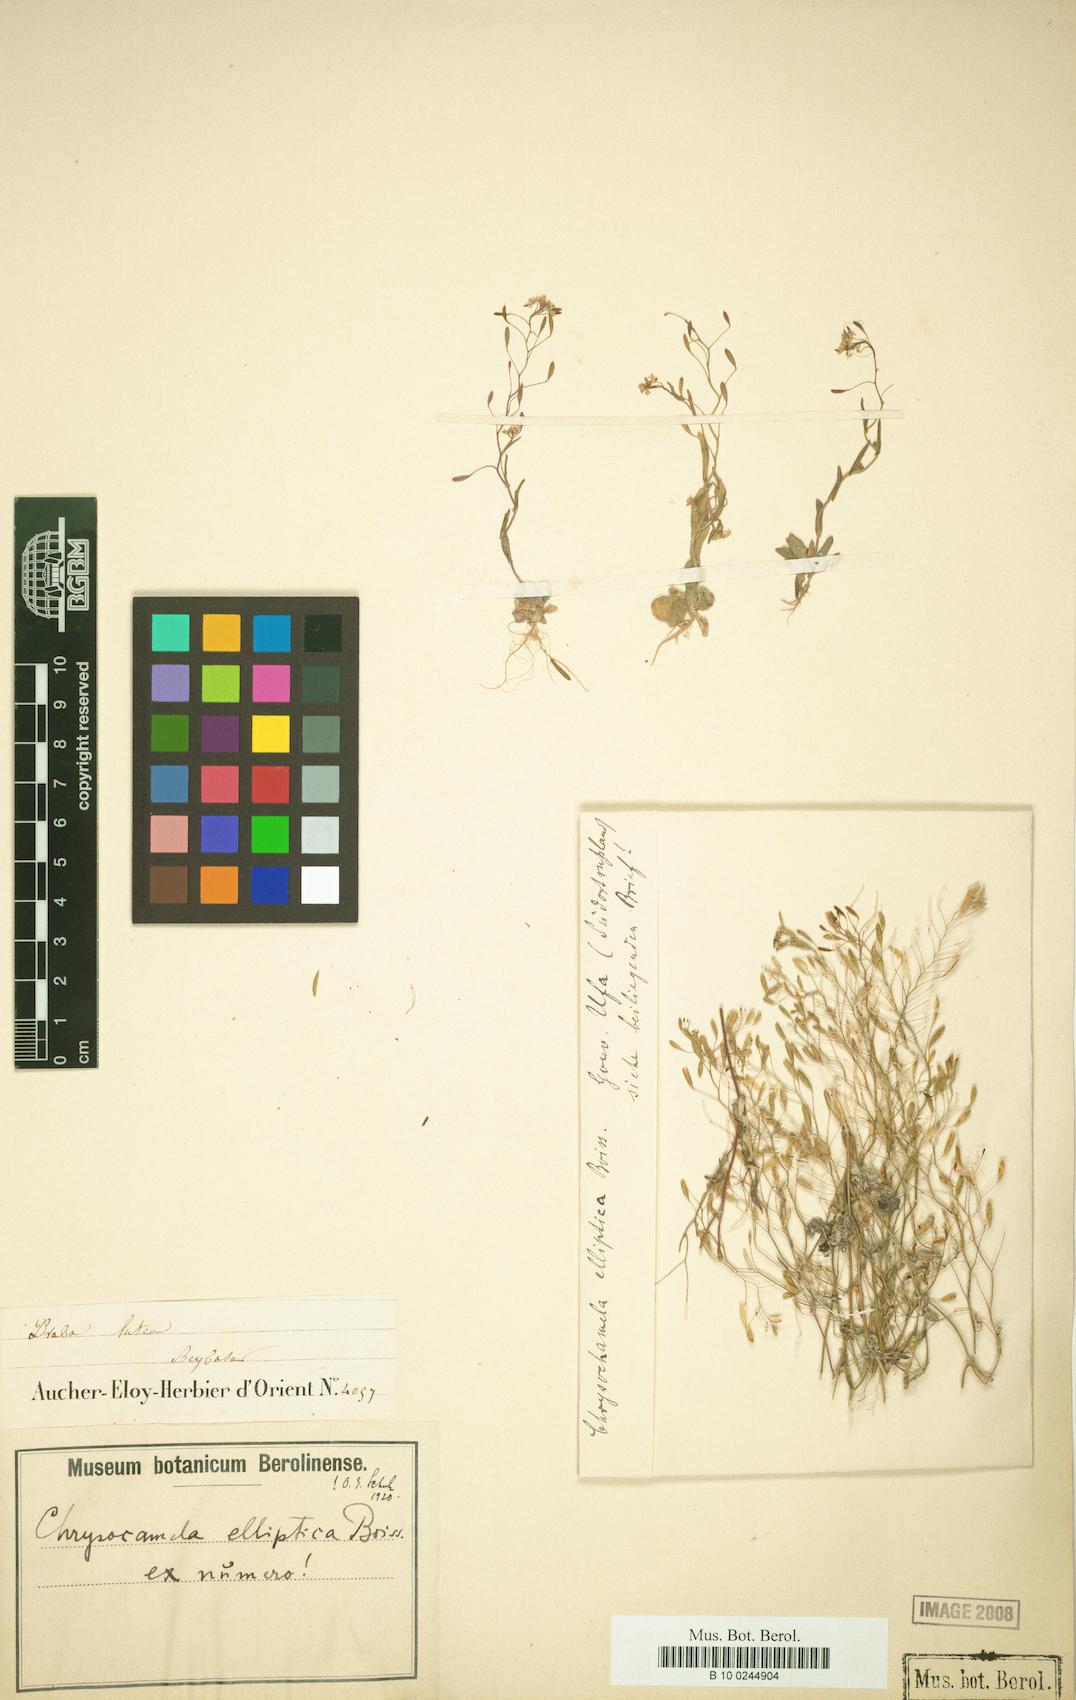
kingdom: Plantae
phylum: Tracheophyta
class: Magnoliopsida
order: Brassicales
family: Brassicaceae
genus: Chrysochamela
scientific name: Chrysochamela elliptica
